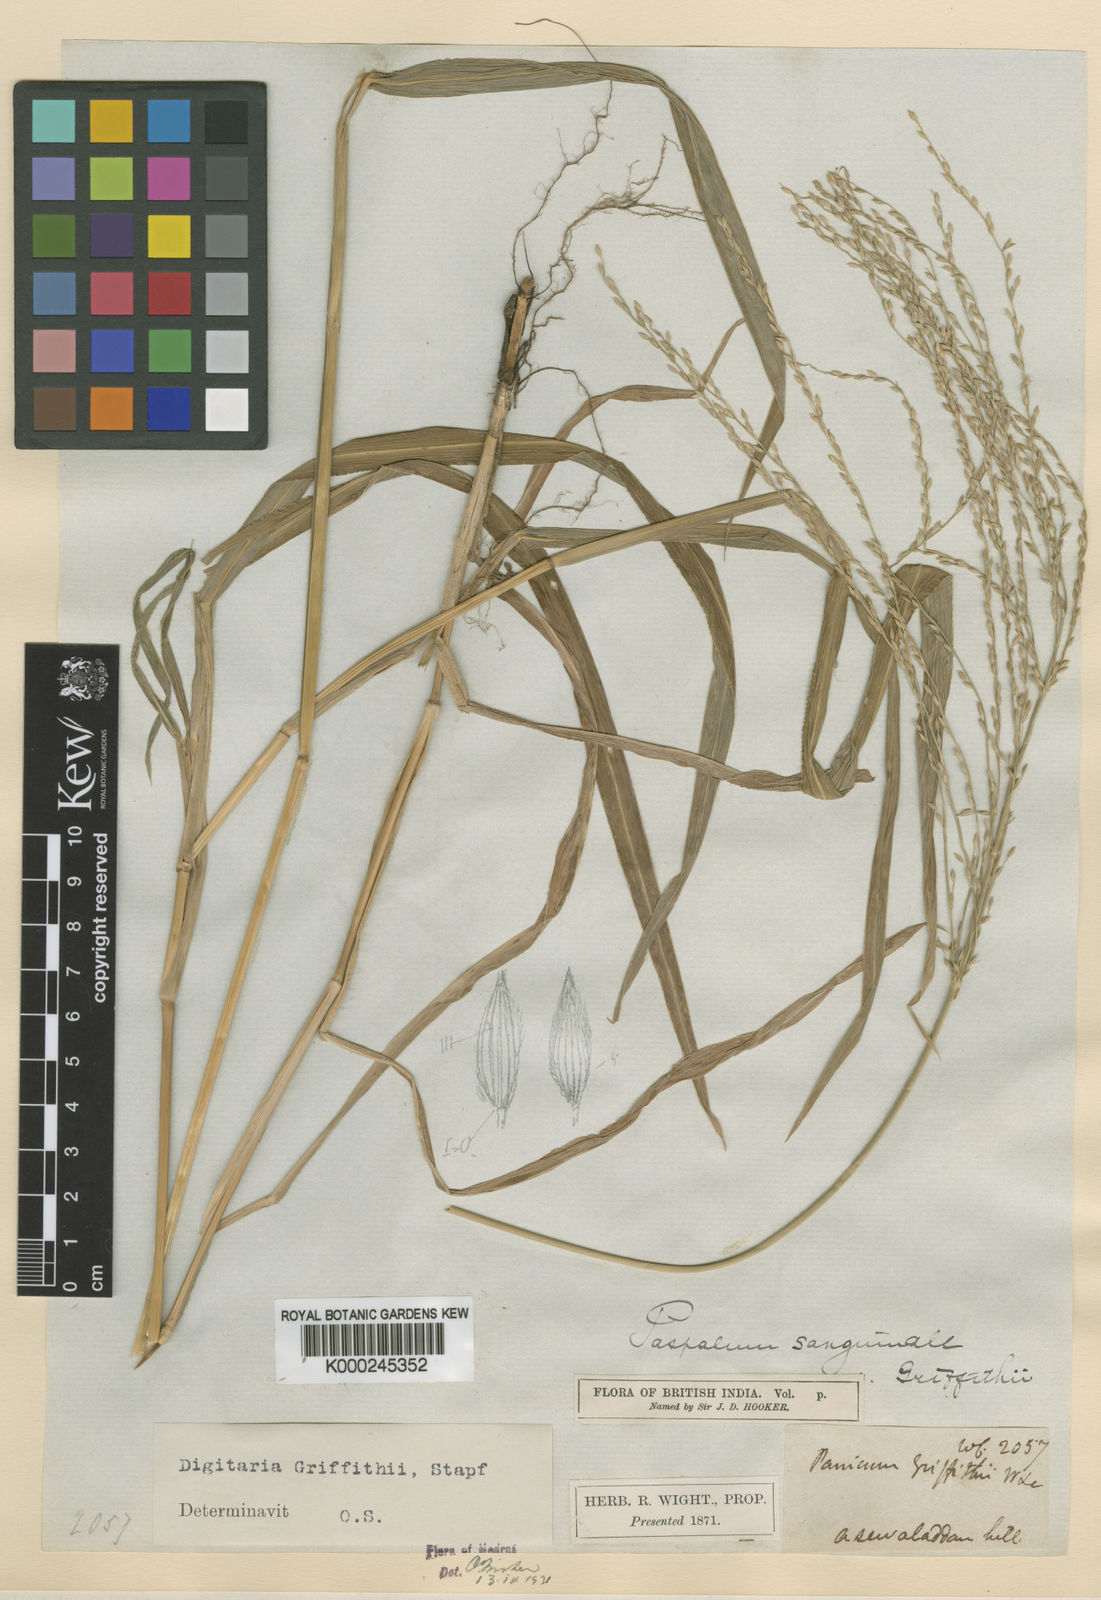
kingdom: Plantae
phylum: Tracheophyta
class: Liliopsida
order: Poales
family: Poaceae
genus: Digitaria
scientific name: Digitaria griffithii
